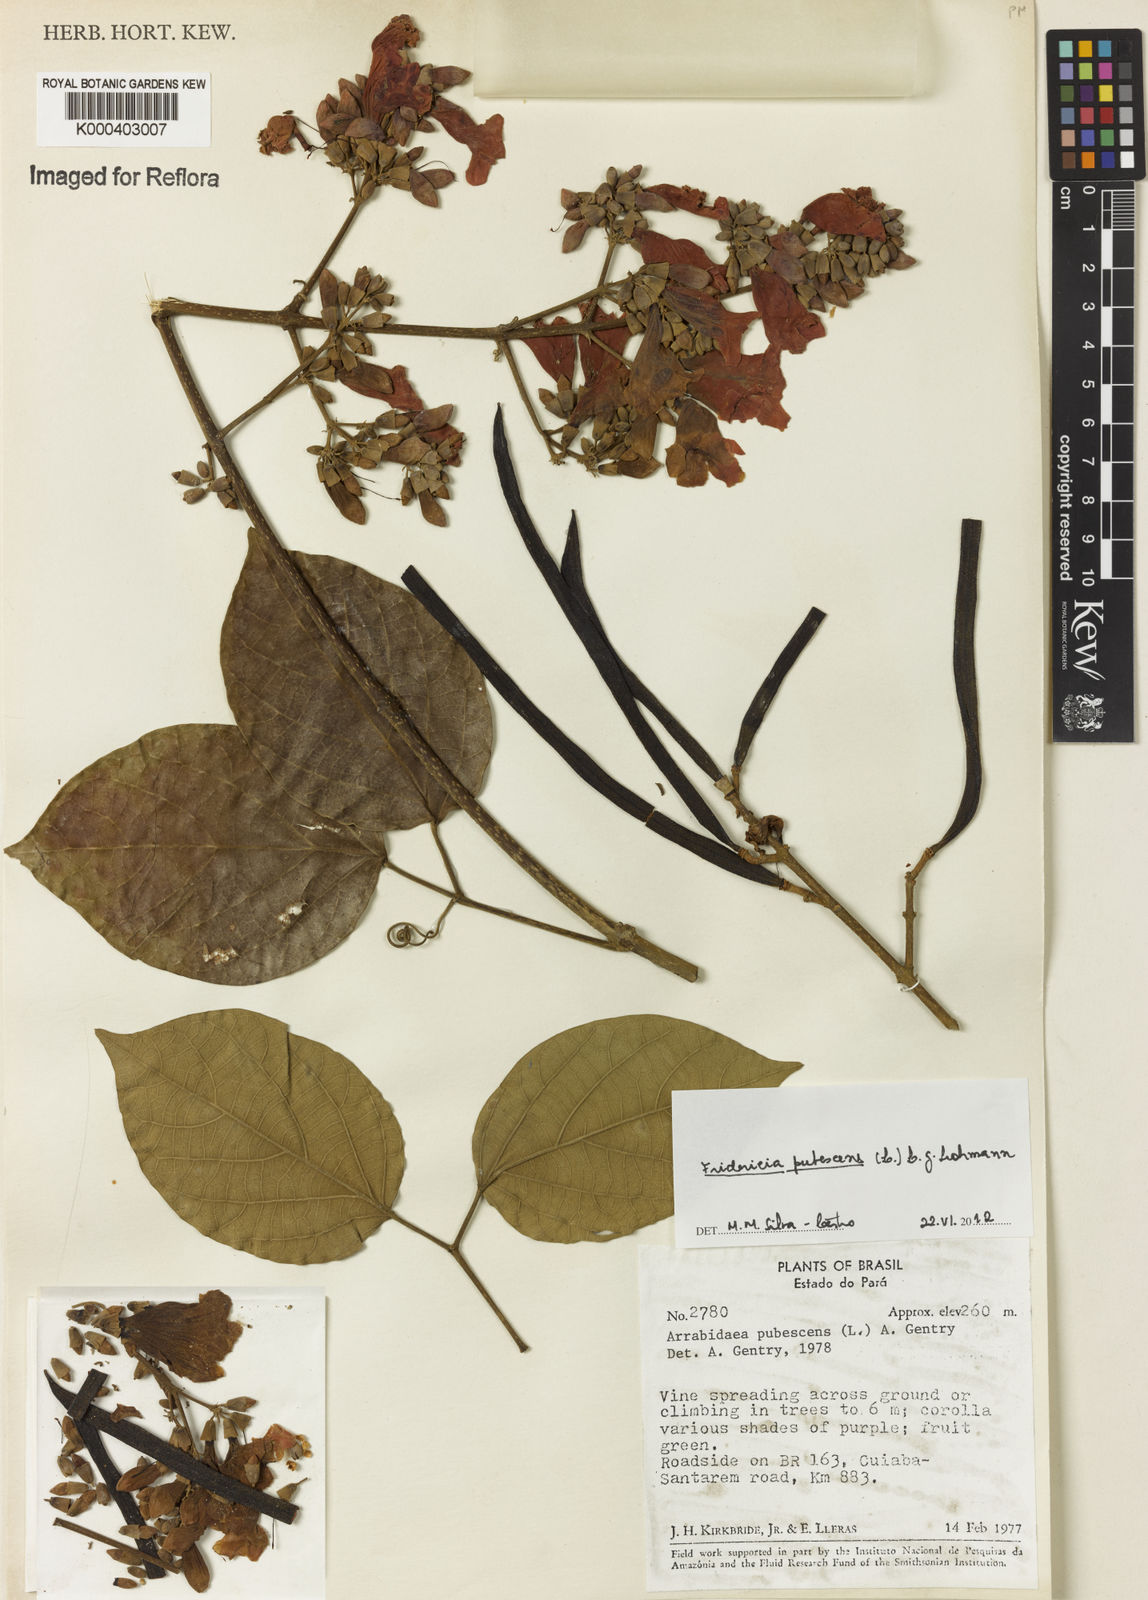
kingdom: Plantae
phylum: Tracheophyta
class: Magnoliopsida
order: Lamiales
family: Bignoniaceae
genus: Fridericia
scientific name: Fridericia pubescens
